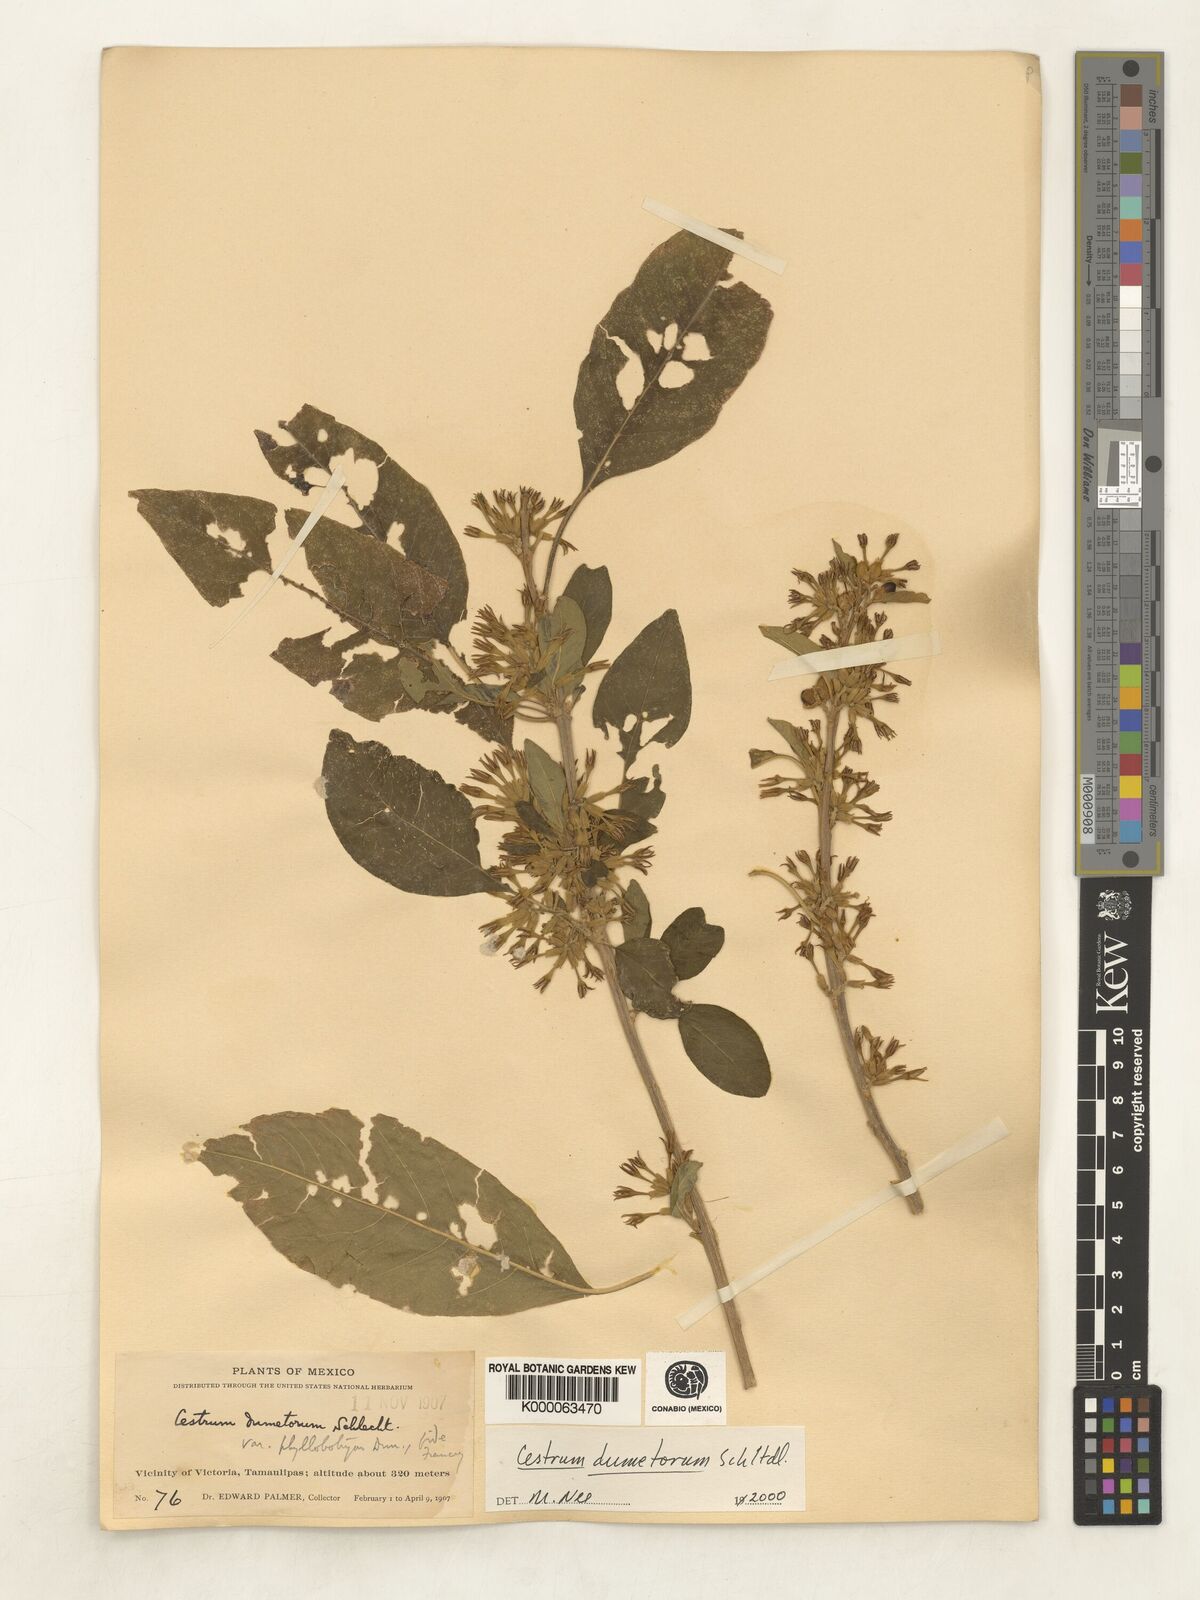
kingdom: Plantae
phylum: Tracheophyta
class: Magnoliopsida
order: Solanales
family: Solanaceae
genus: Cestrum
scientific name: Cestrum dumetorum
